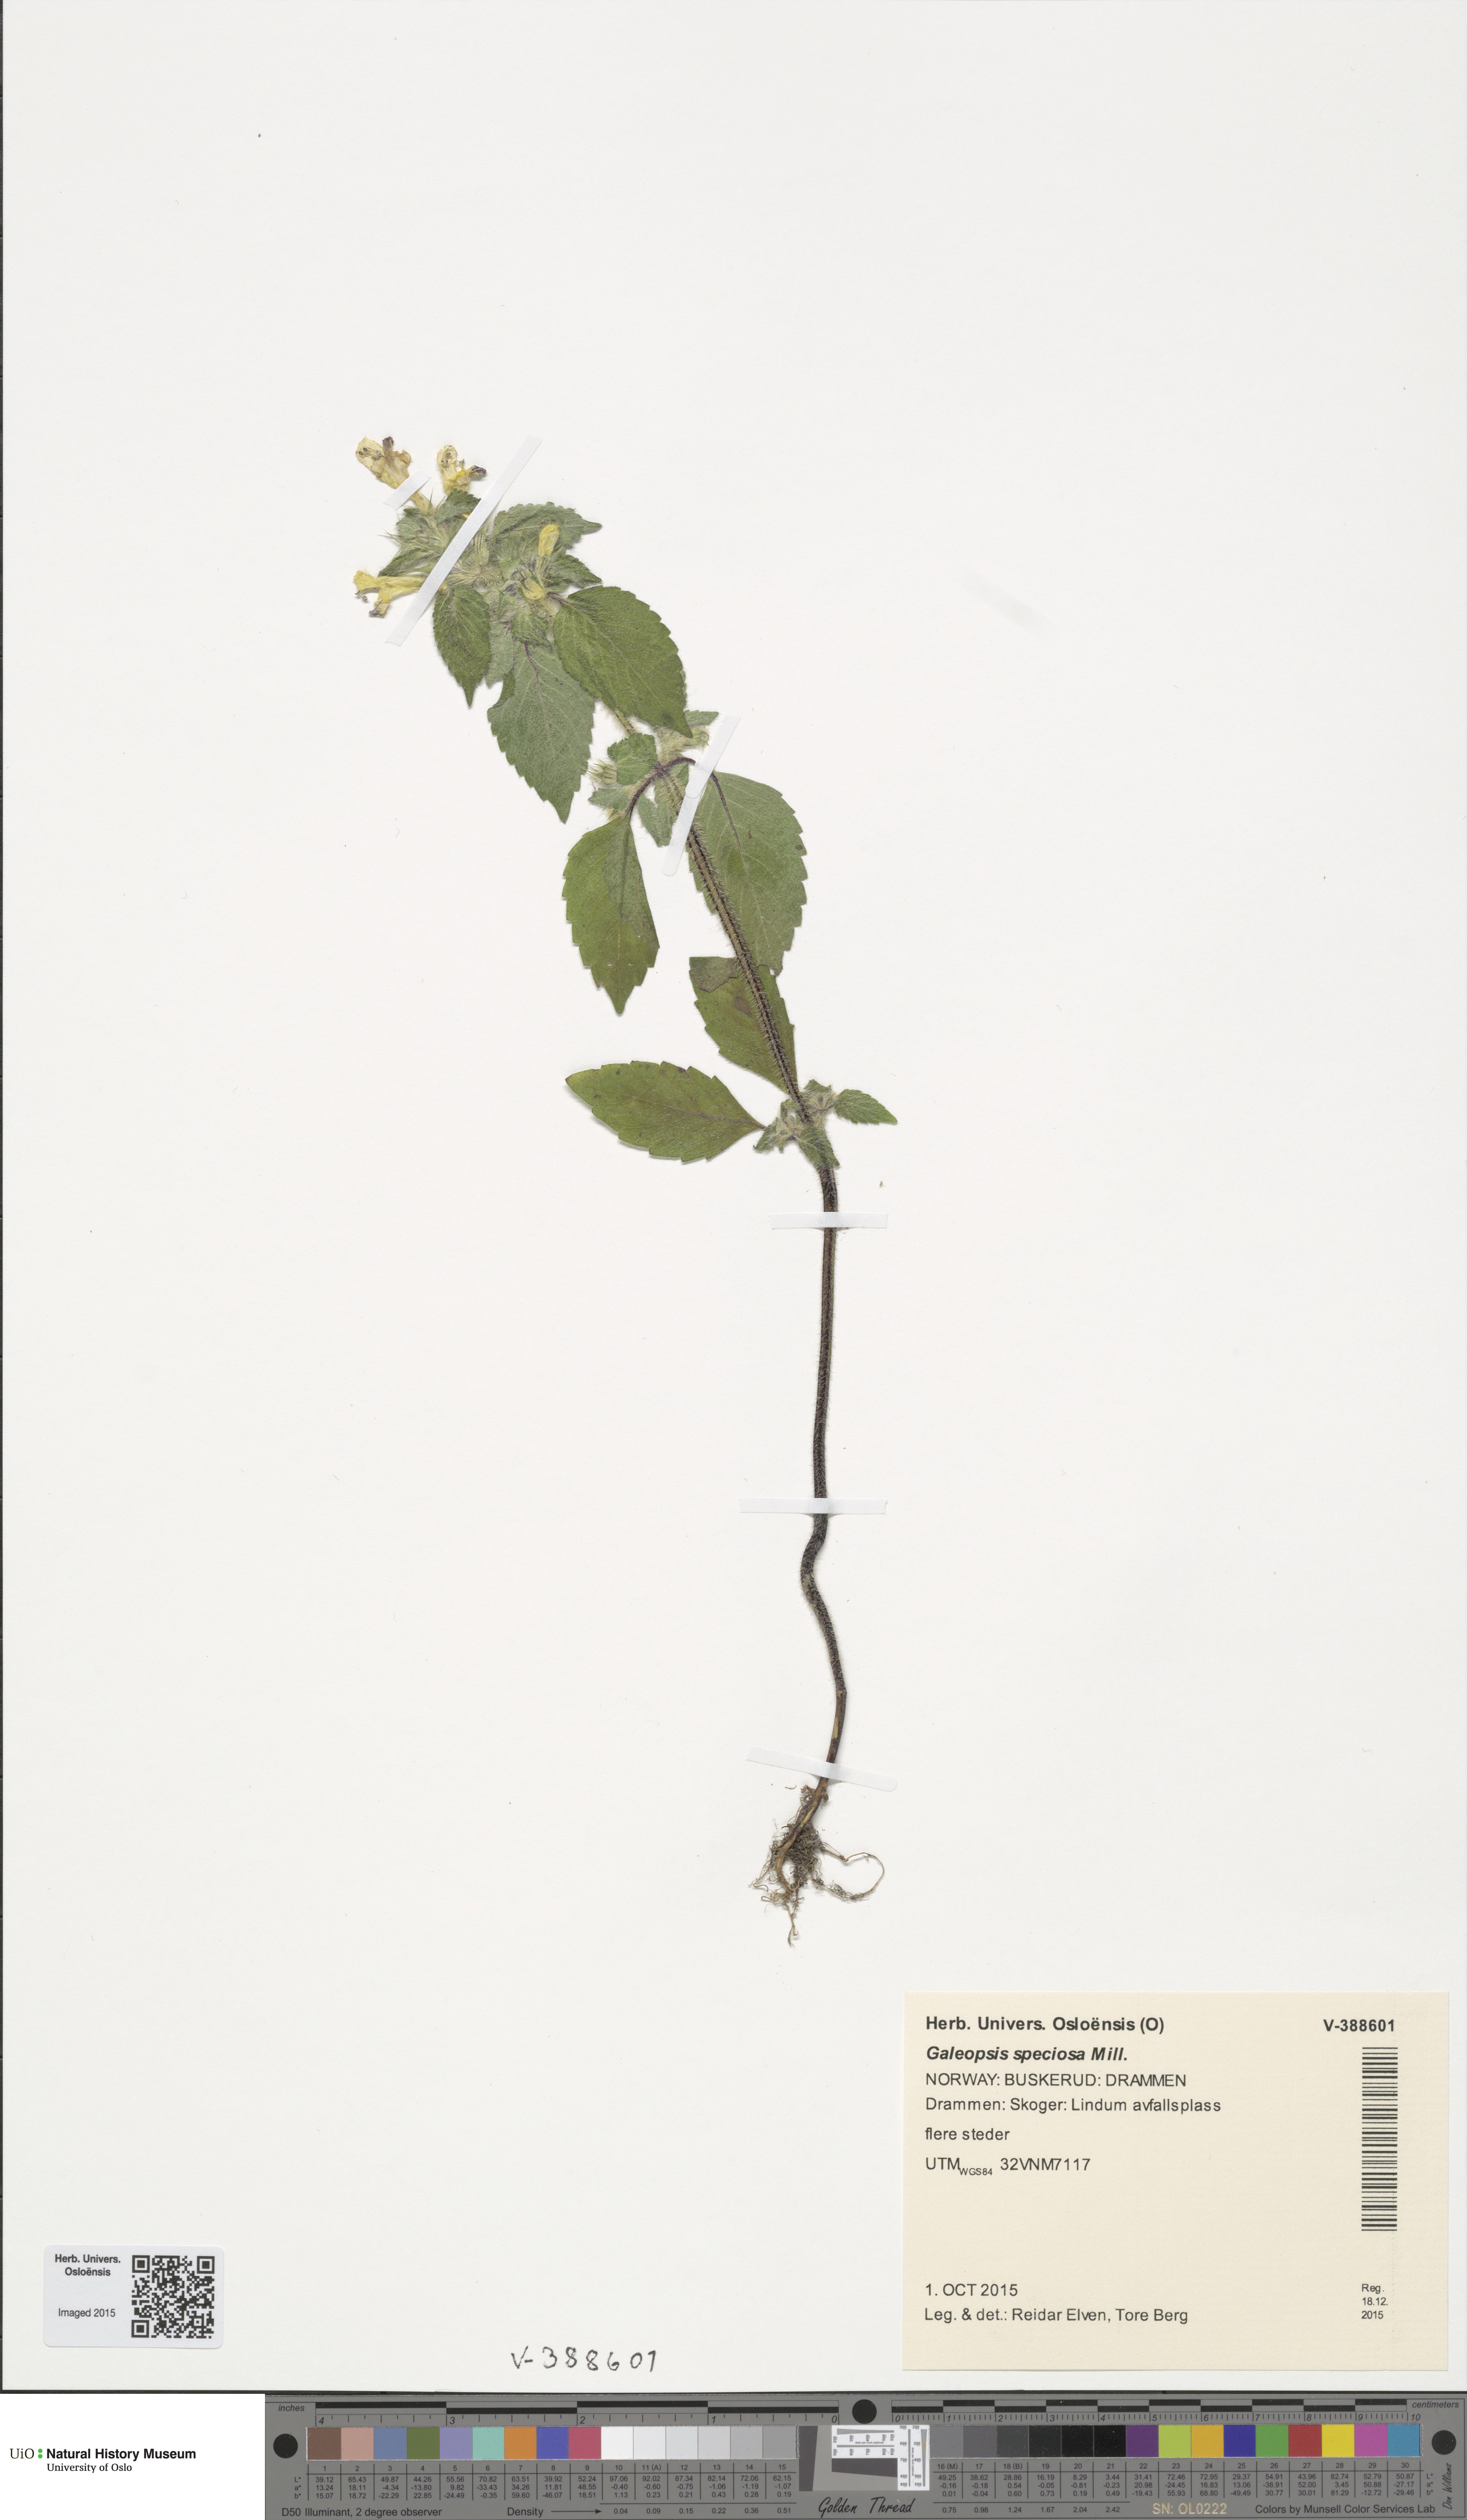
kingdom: Plantae
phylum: Tracheophyta
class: Magnoliopsida
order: Lamiales
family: Lamiaceae
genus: Galeopsis
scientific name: Galeopsis speciosa
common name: Large-flowered hemp-nettle
